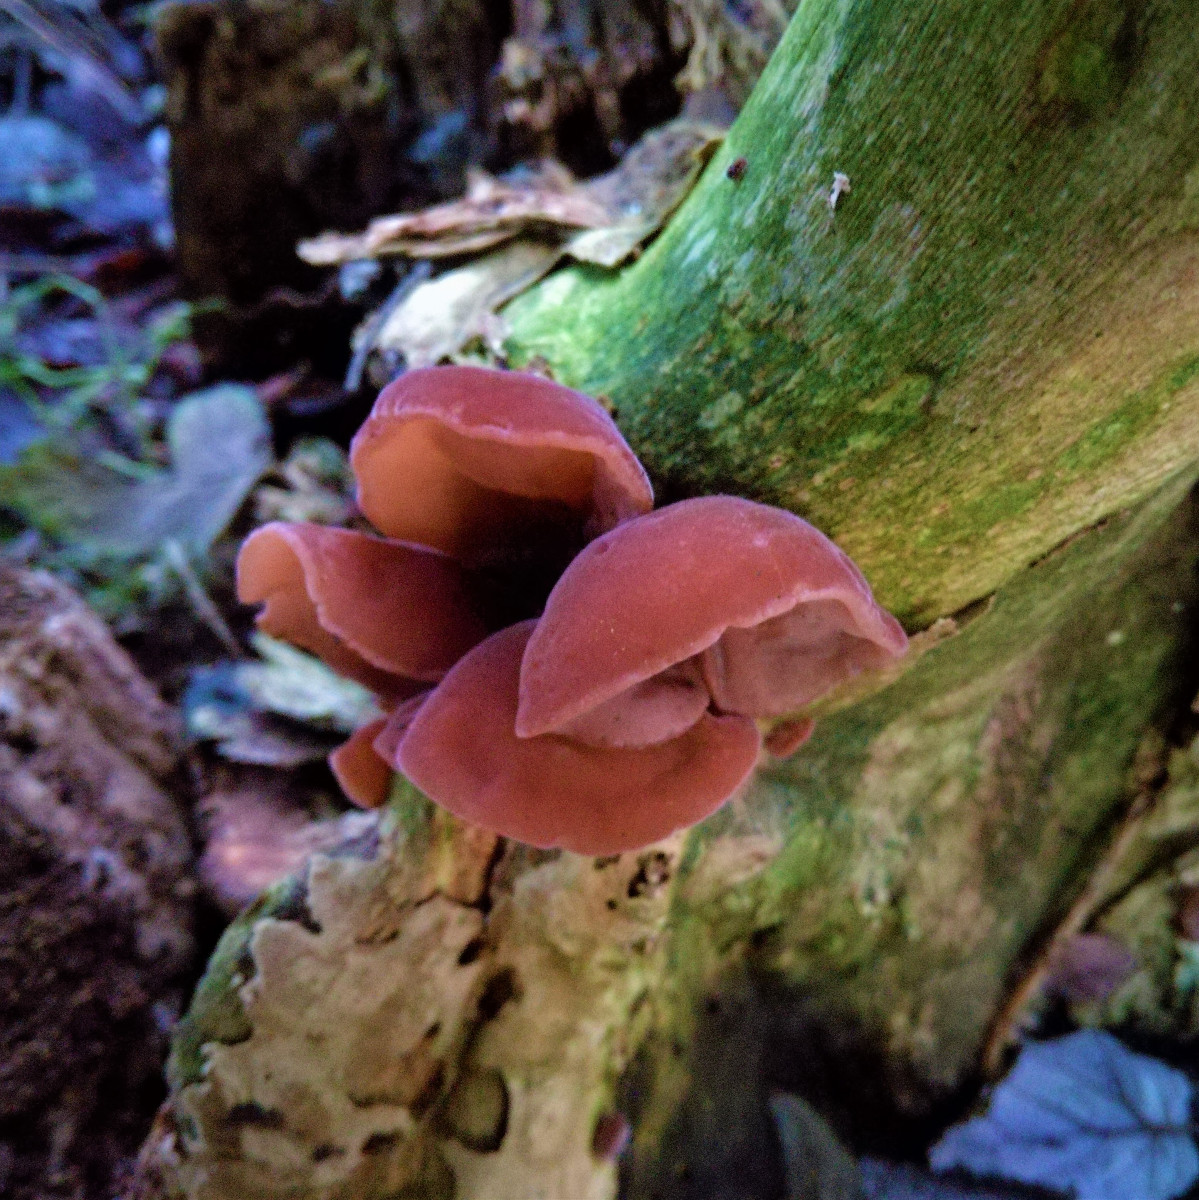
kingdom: Fungi
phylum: Basidiomycota
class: Agaricomycetes
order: Auriculariales
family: Auriculariaceae
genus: Auricularia
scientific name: Auricularia auricula-judae
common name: almindelig judasøre
